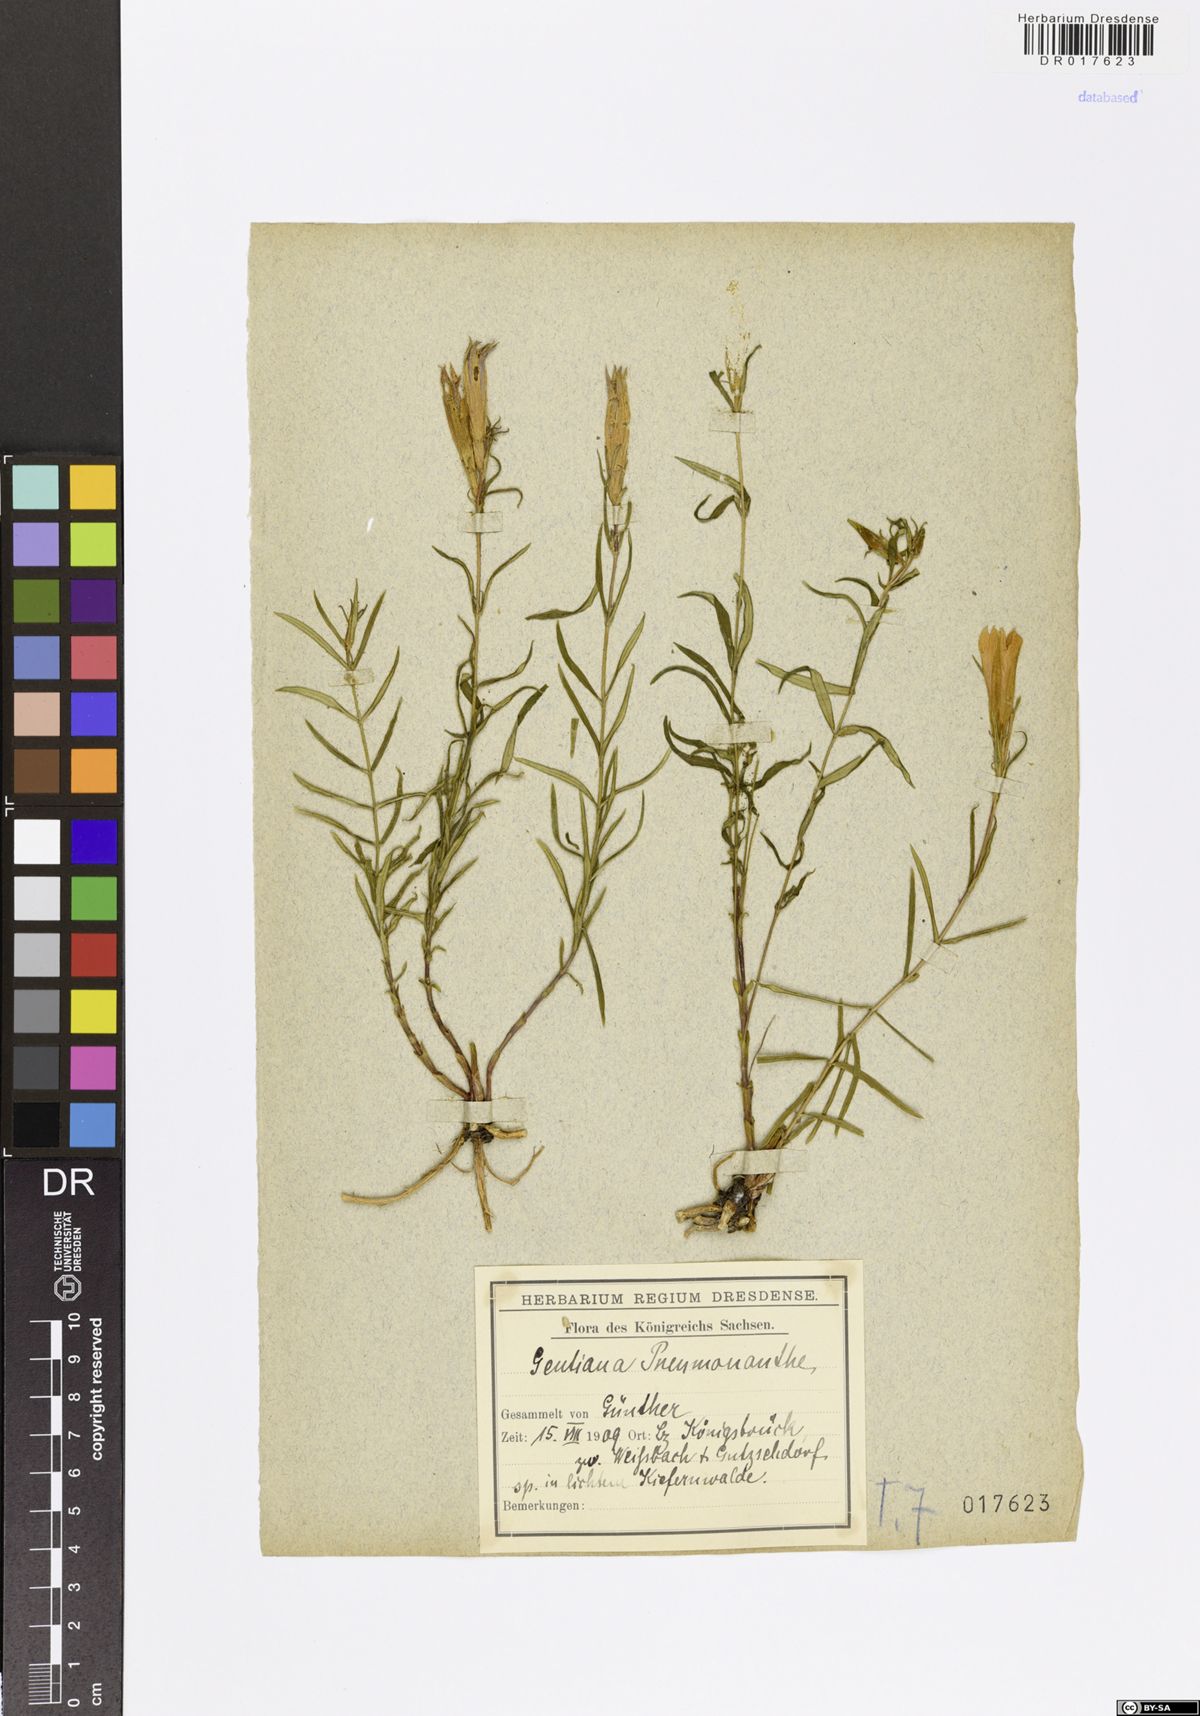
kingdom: Plantae
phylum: Tracheophyta
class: Magnoliopsida
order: Gentianales
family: Gentianaceae
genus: Gentiana
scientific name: Gentiana pneumonanthe
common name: Marsh gentian
